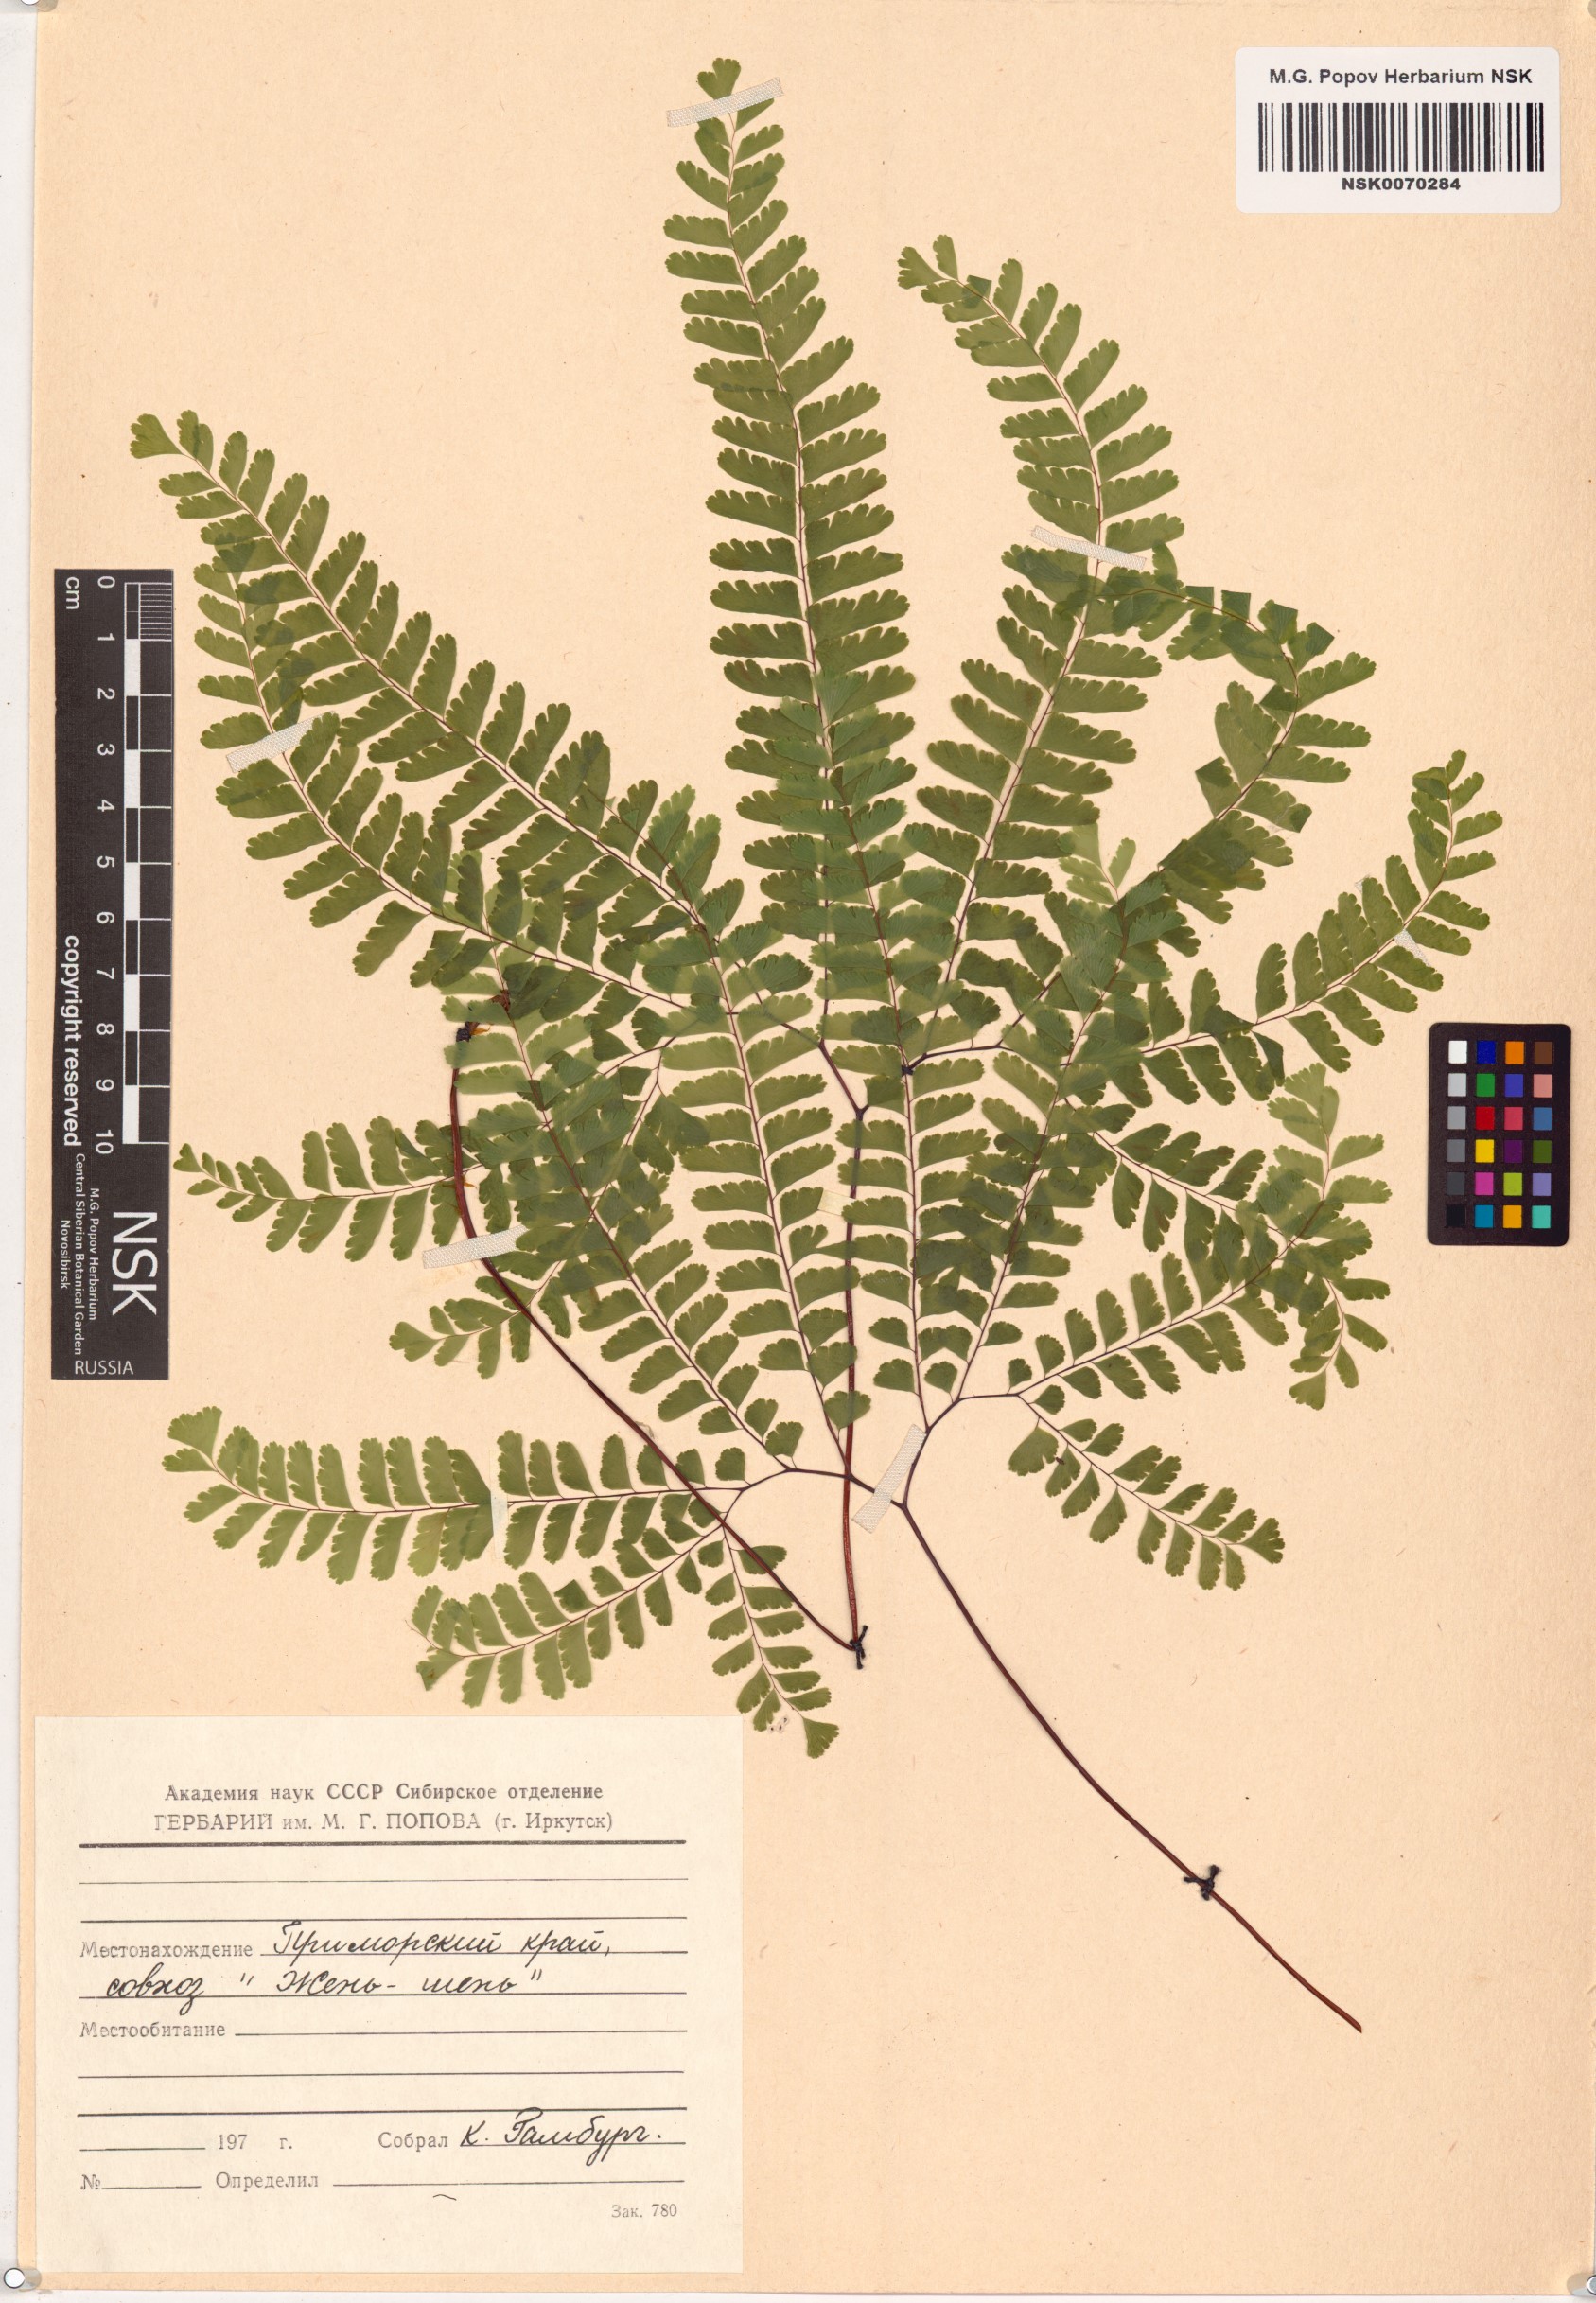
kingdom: Plantae
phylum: Tracheophyta
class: Polypodiopsida
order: Polypodiales
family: Pteridaceae
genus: Adiantum
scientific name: Adiantum pedatum
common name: Five-finger fern
